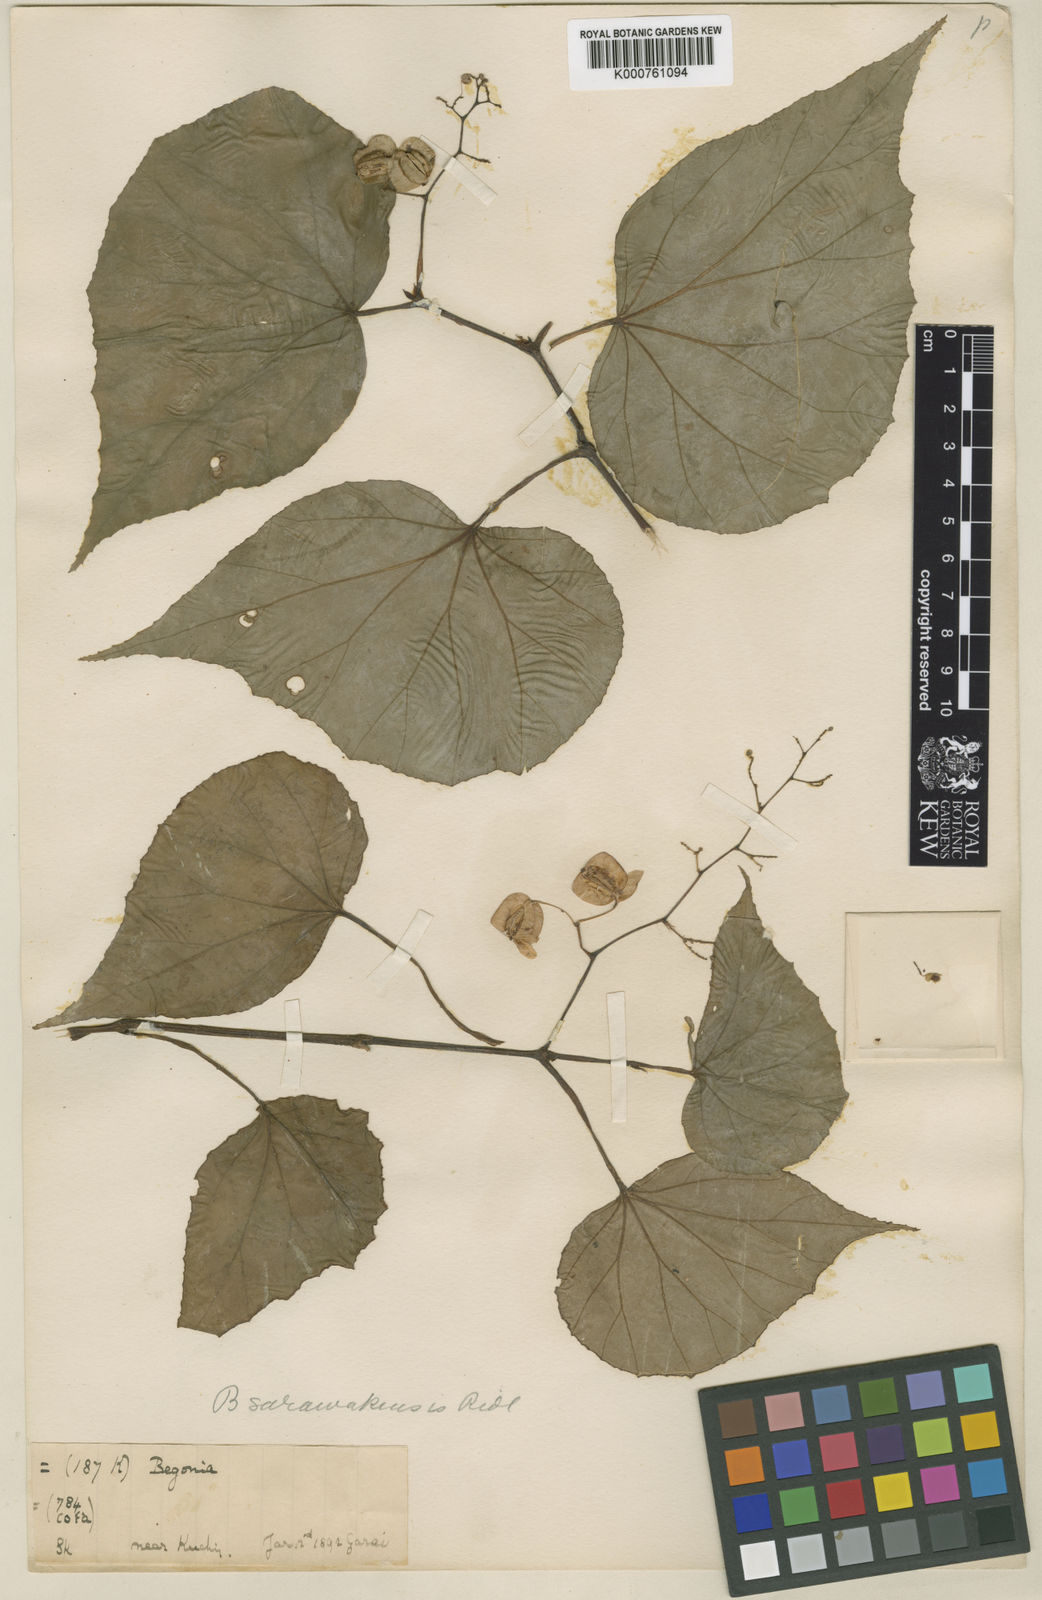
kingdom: Plantae
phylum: Tracheophyta
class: Magnoliopsida
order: Cucurbitales
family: Begoniaceae
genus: Begonia
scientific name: Begonia sarawakensis
